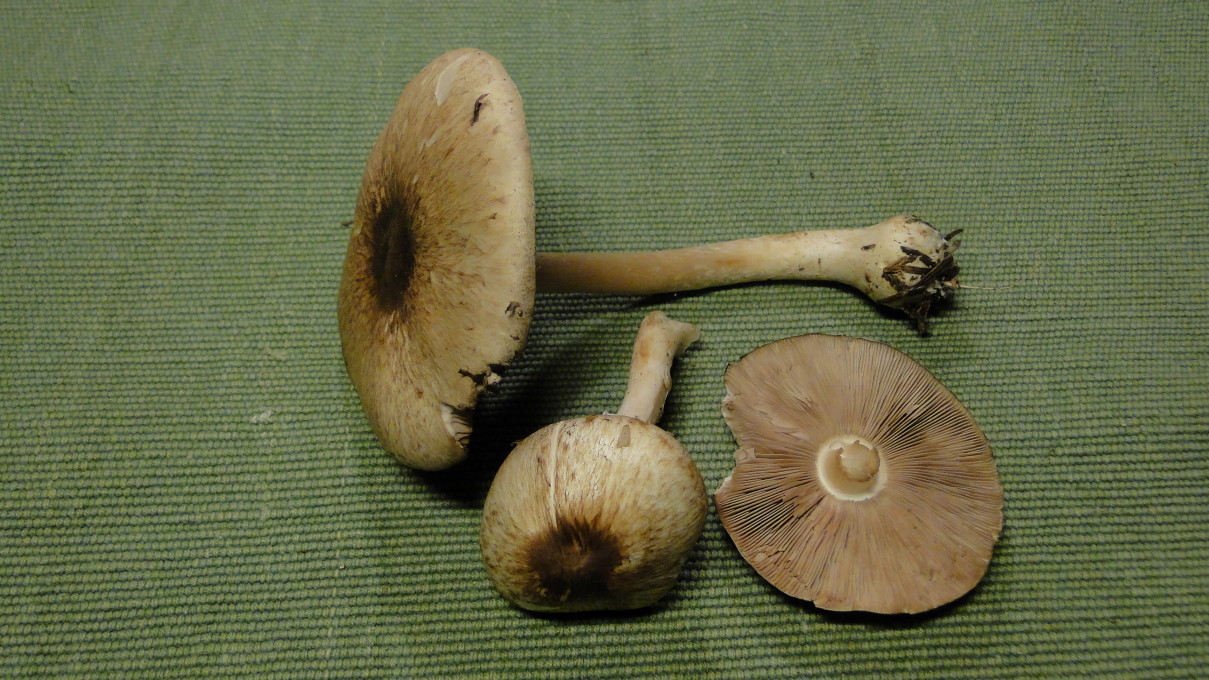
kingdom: Fungi
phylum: Basidiomycota
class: Agaricomycetes
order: Agaricales
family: Agaricaceae
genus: Agaricus
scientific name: Agaricus impudicus
